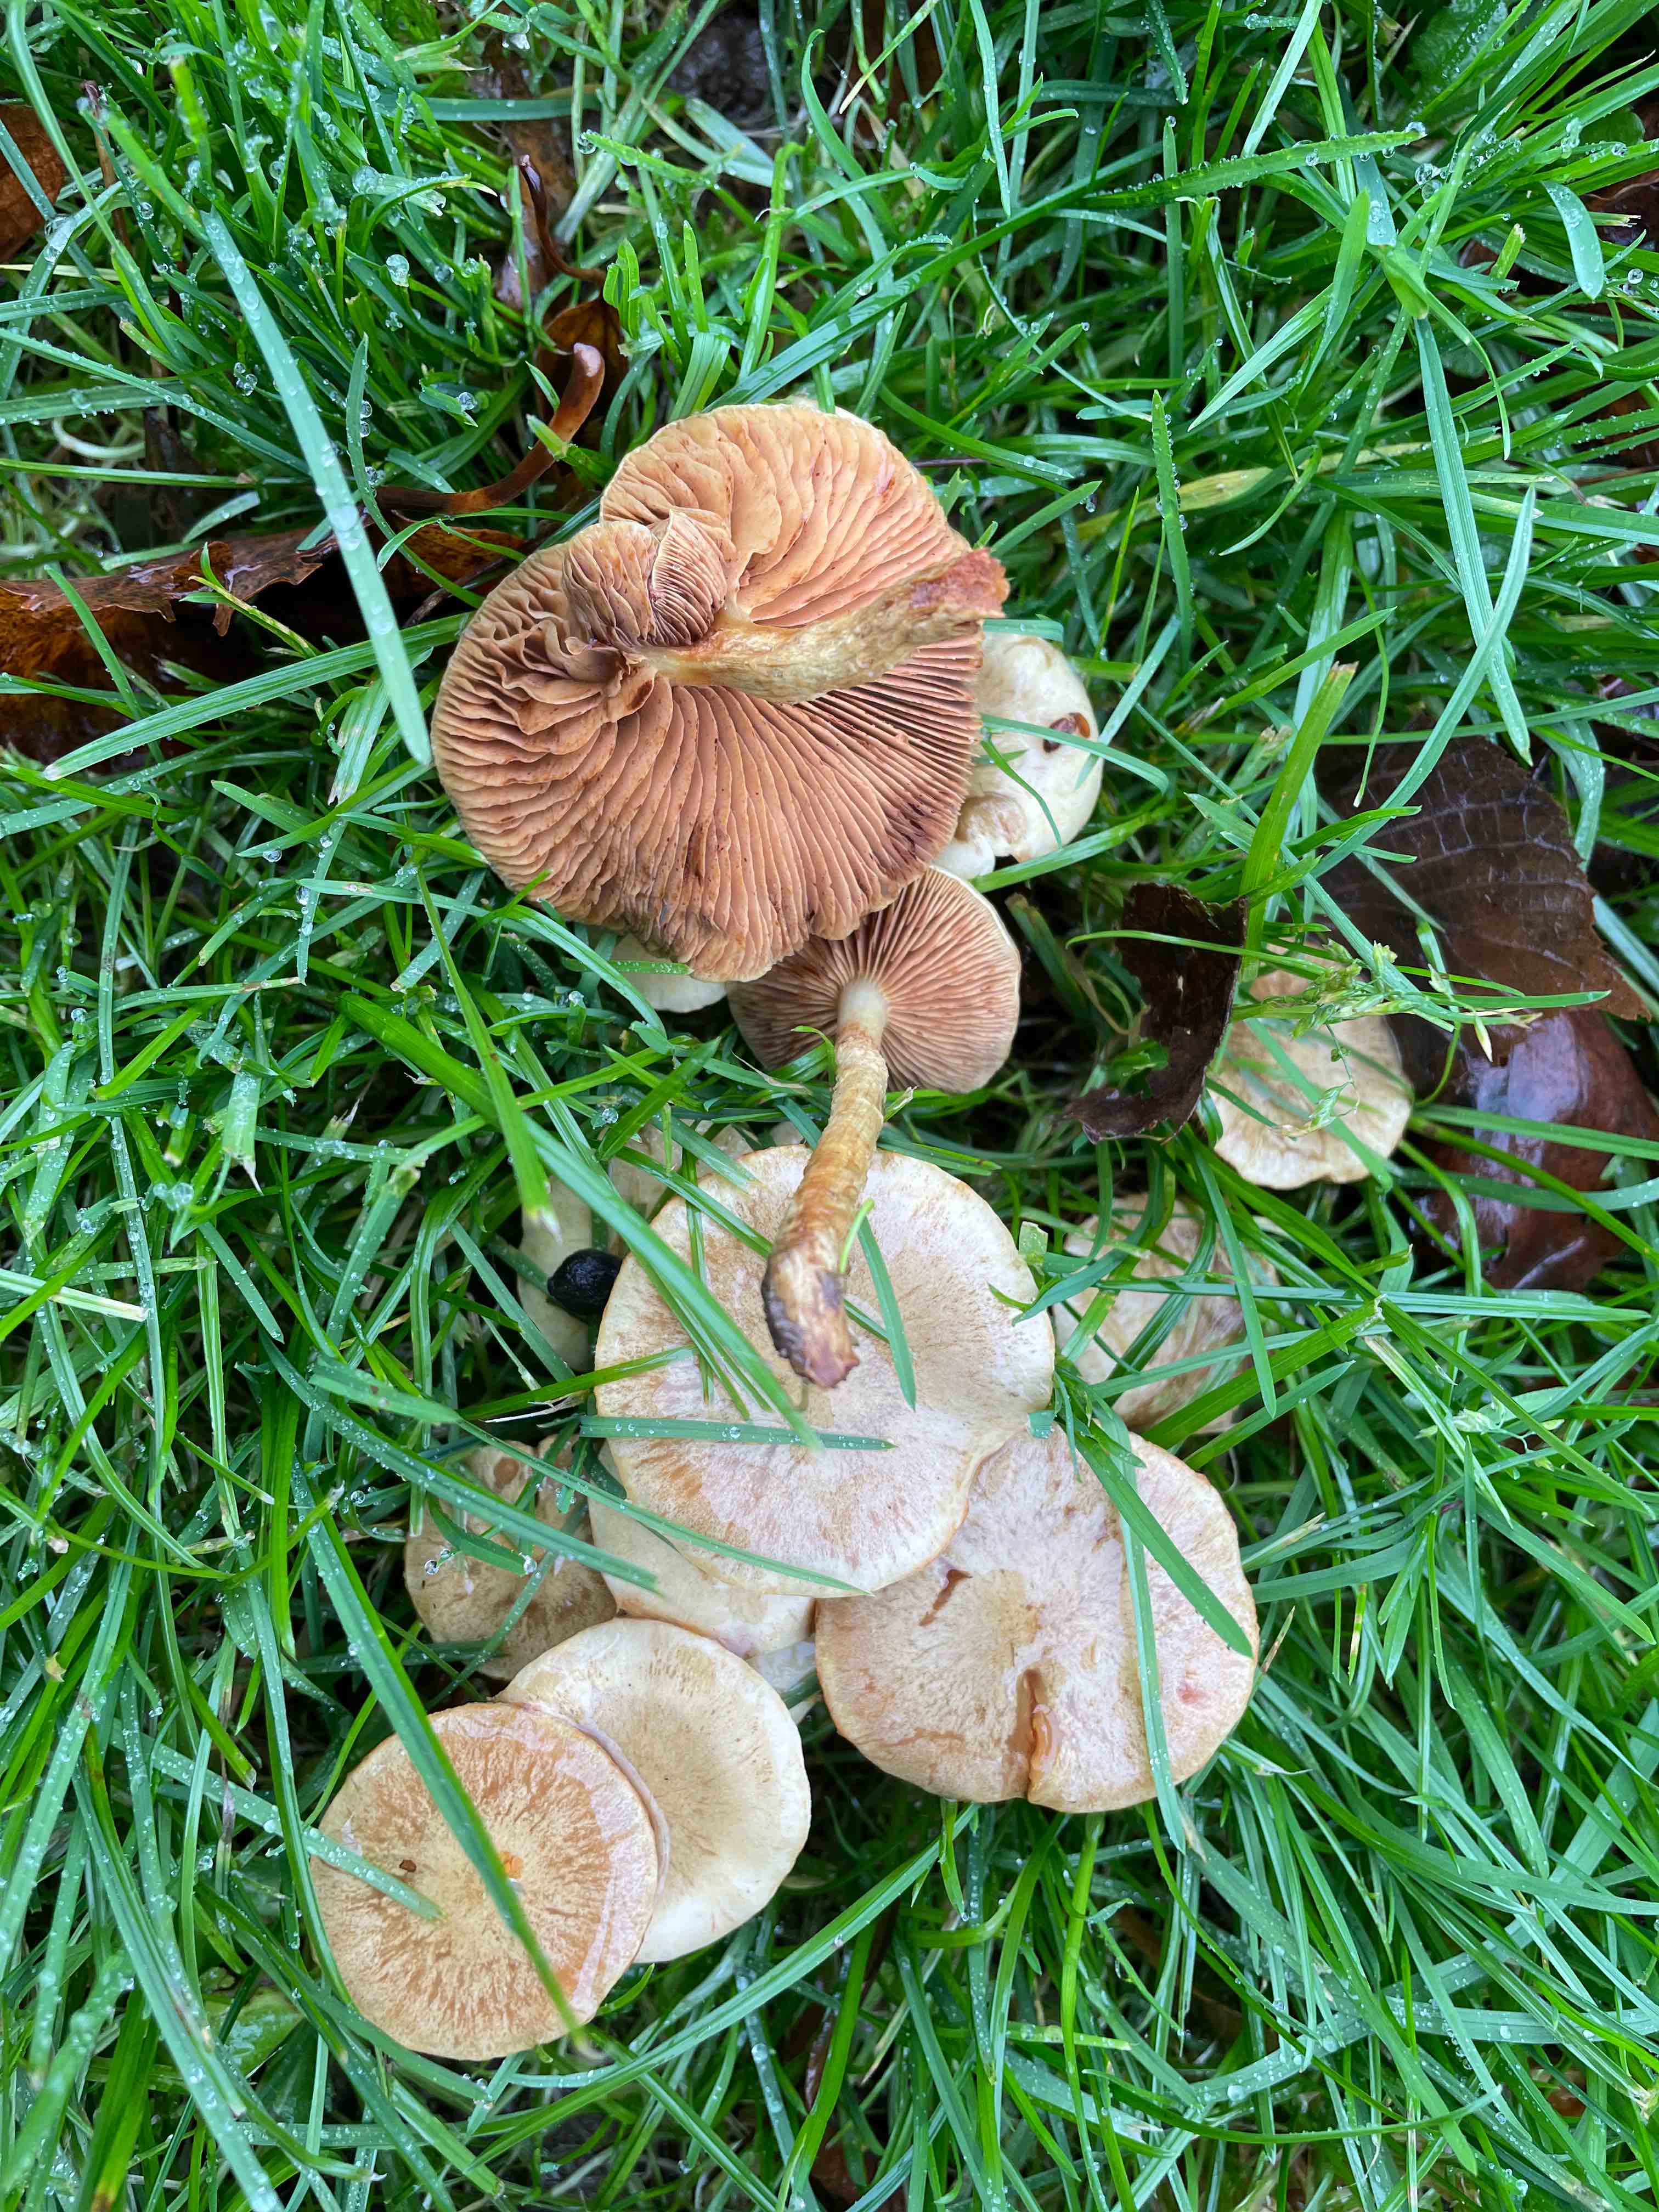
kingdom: Fungi
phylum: Basidiomycota
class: Agaricomycetes
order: Agaricales
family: Strophariaceae
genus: Pholiota
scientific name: Pholiota gummosa
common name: grøngul skælhat
